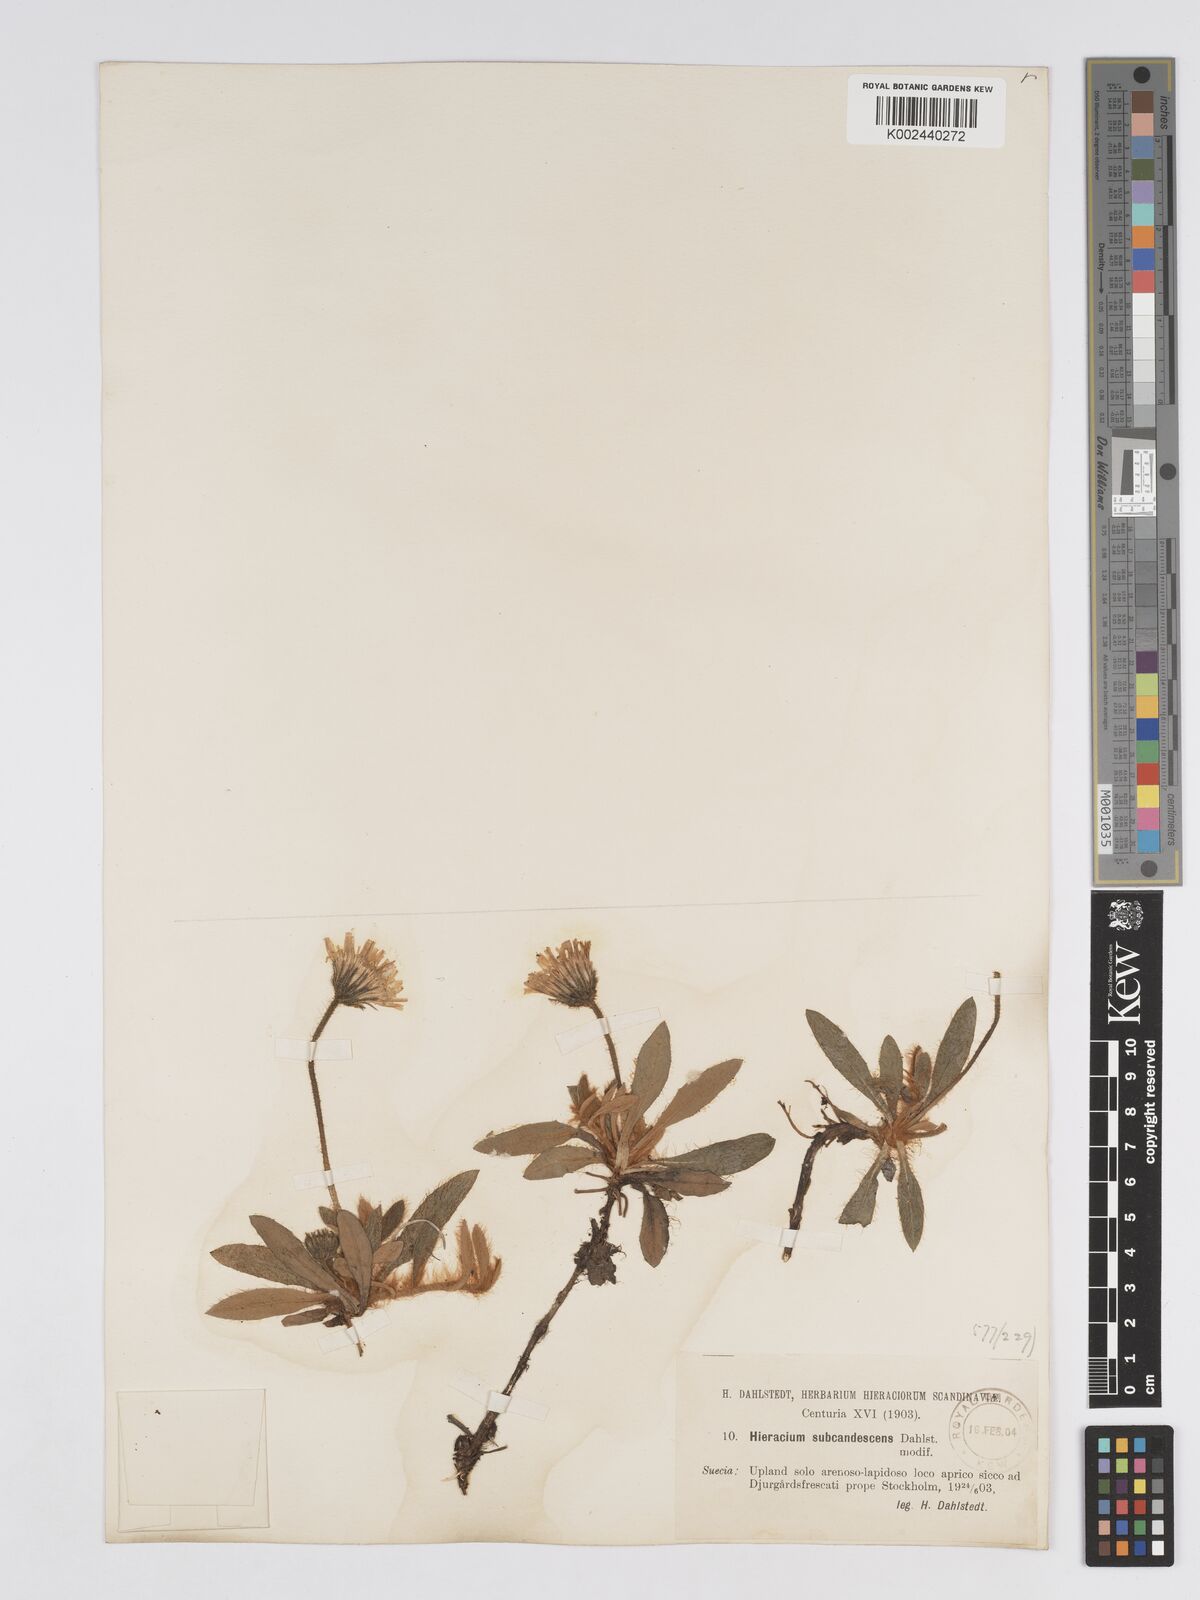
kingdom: Plantae
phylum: Tracheophyta
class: Magnoliopsida
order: Asterales
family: Asteraceae
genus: Hieracium
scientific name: Hieracium
